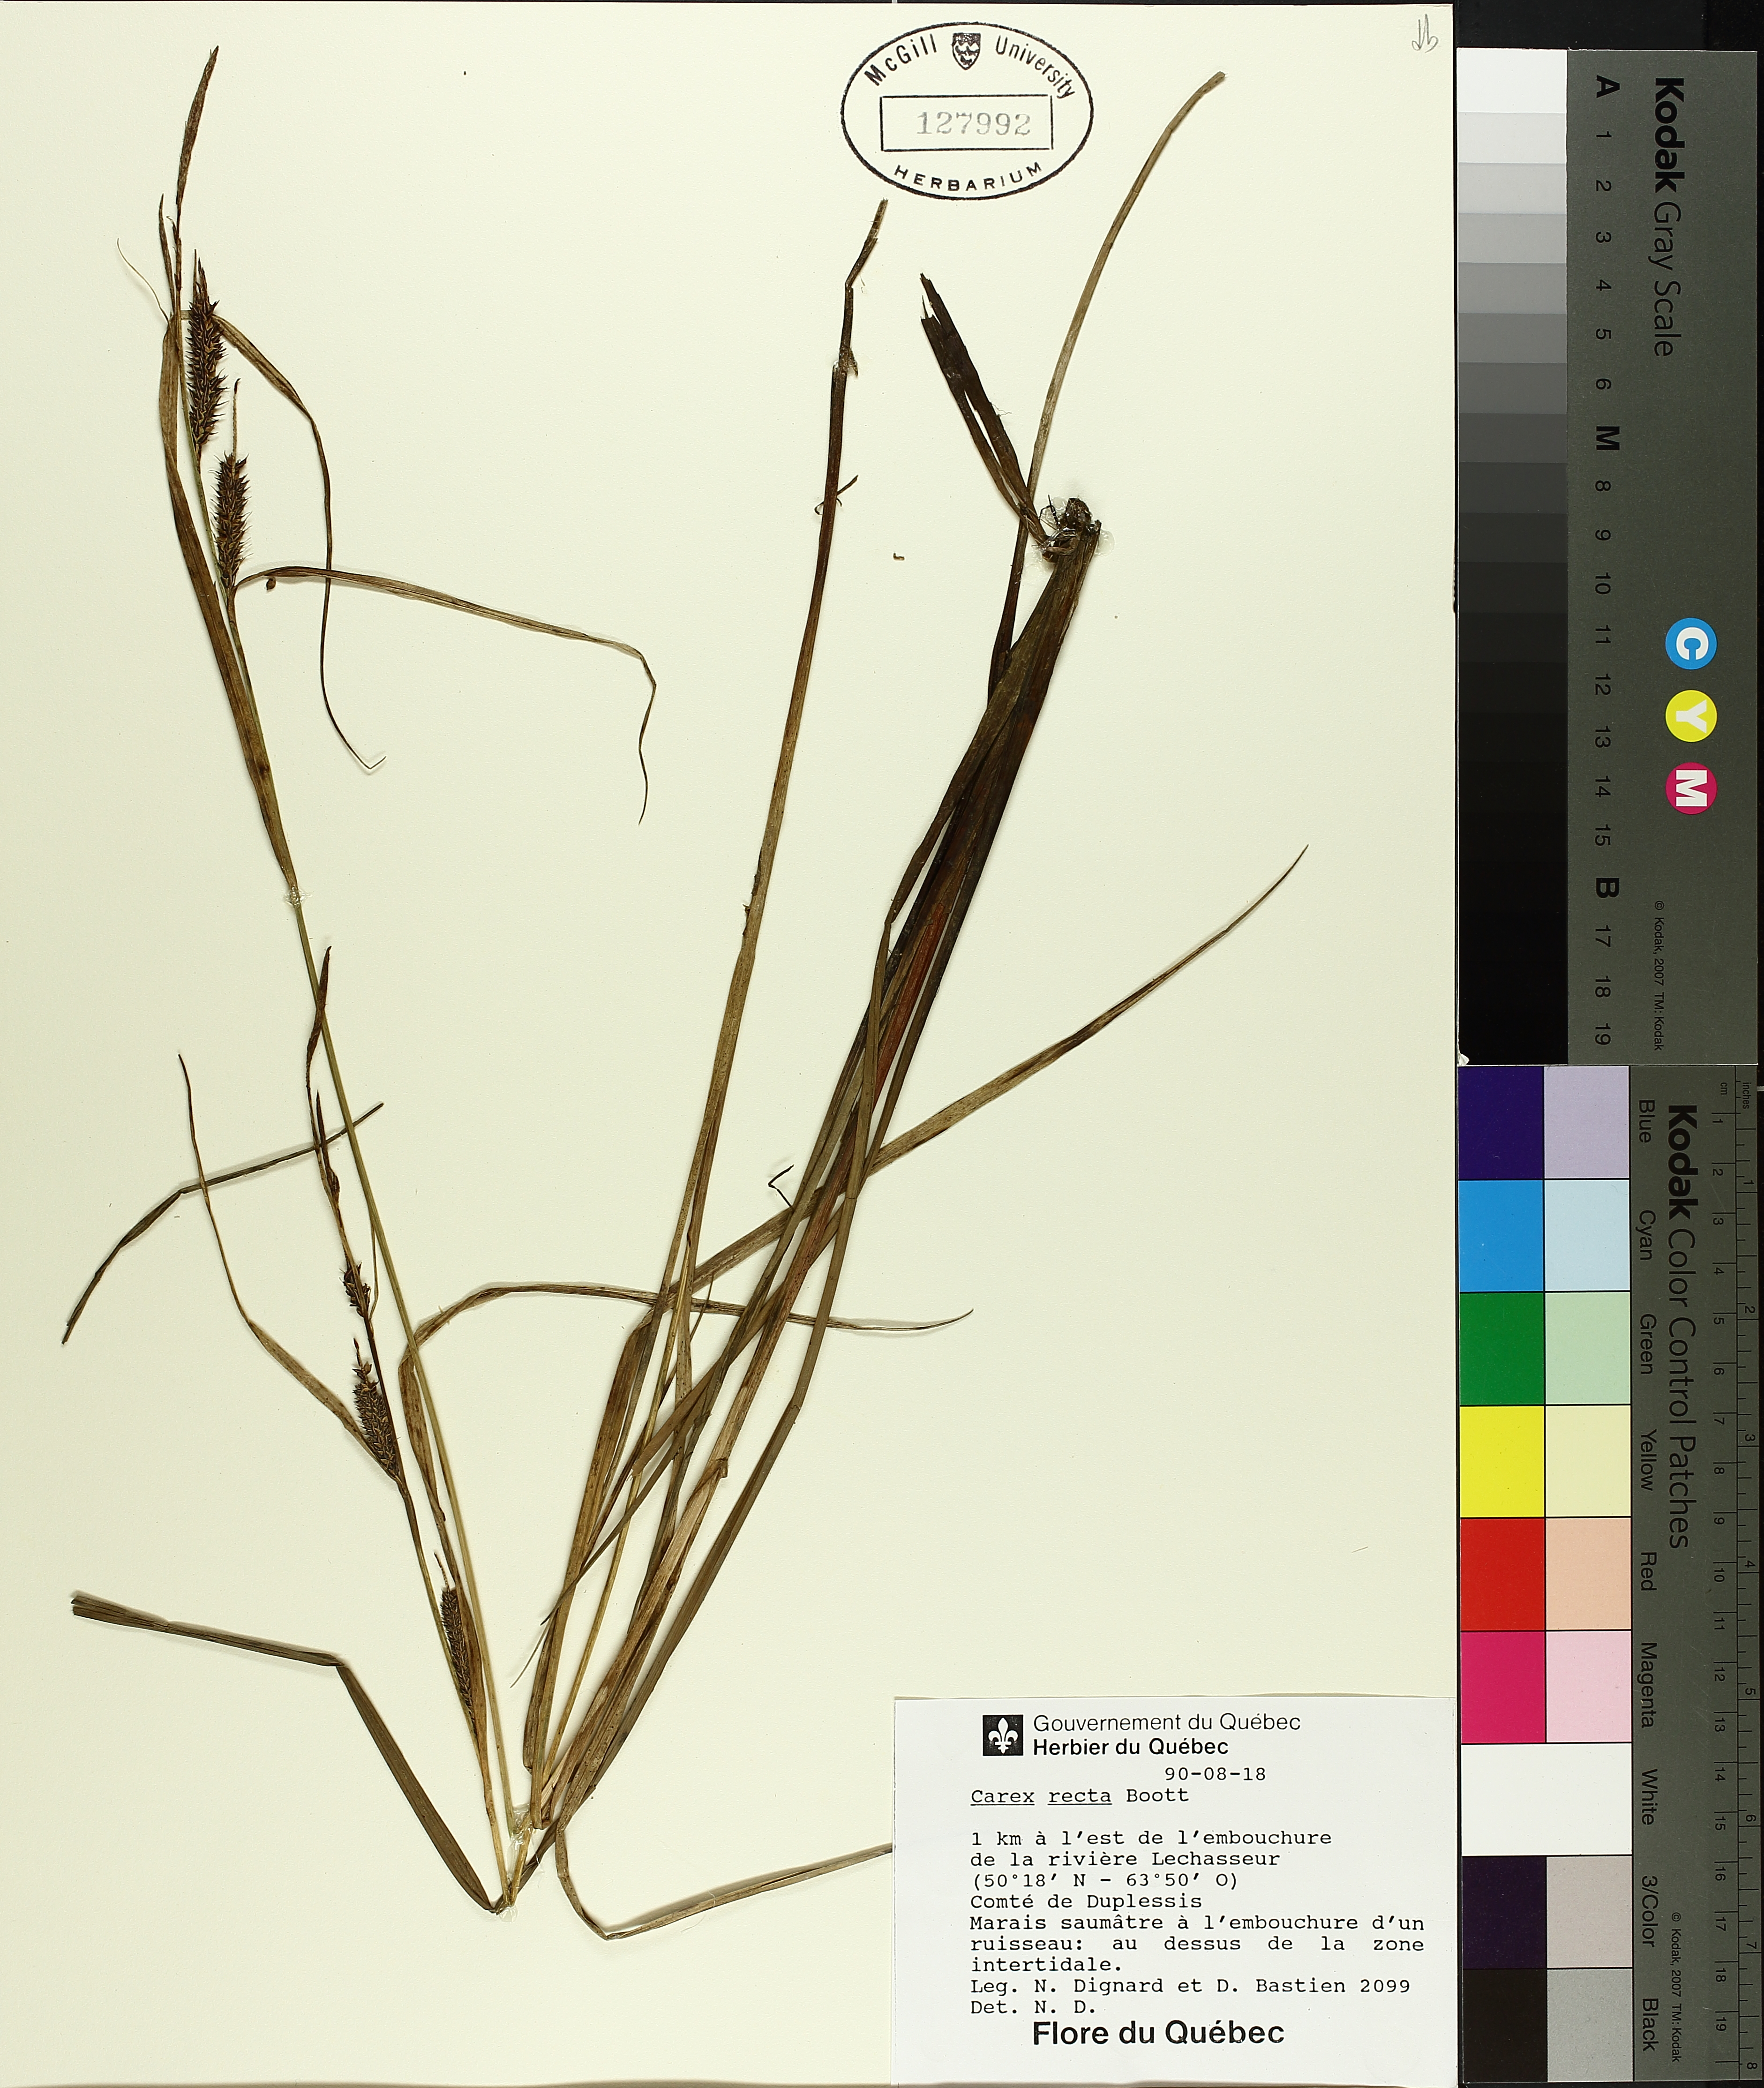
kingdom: Plantae
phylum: Tracheophyta
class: Liliopsida
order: Poales
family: Cyperaceae
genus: Carex
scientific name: Carex recta
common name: Estuarine sedge
